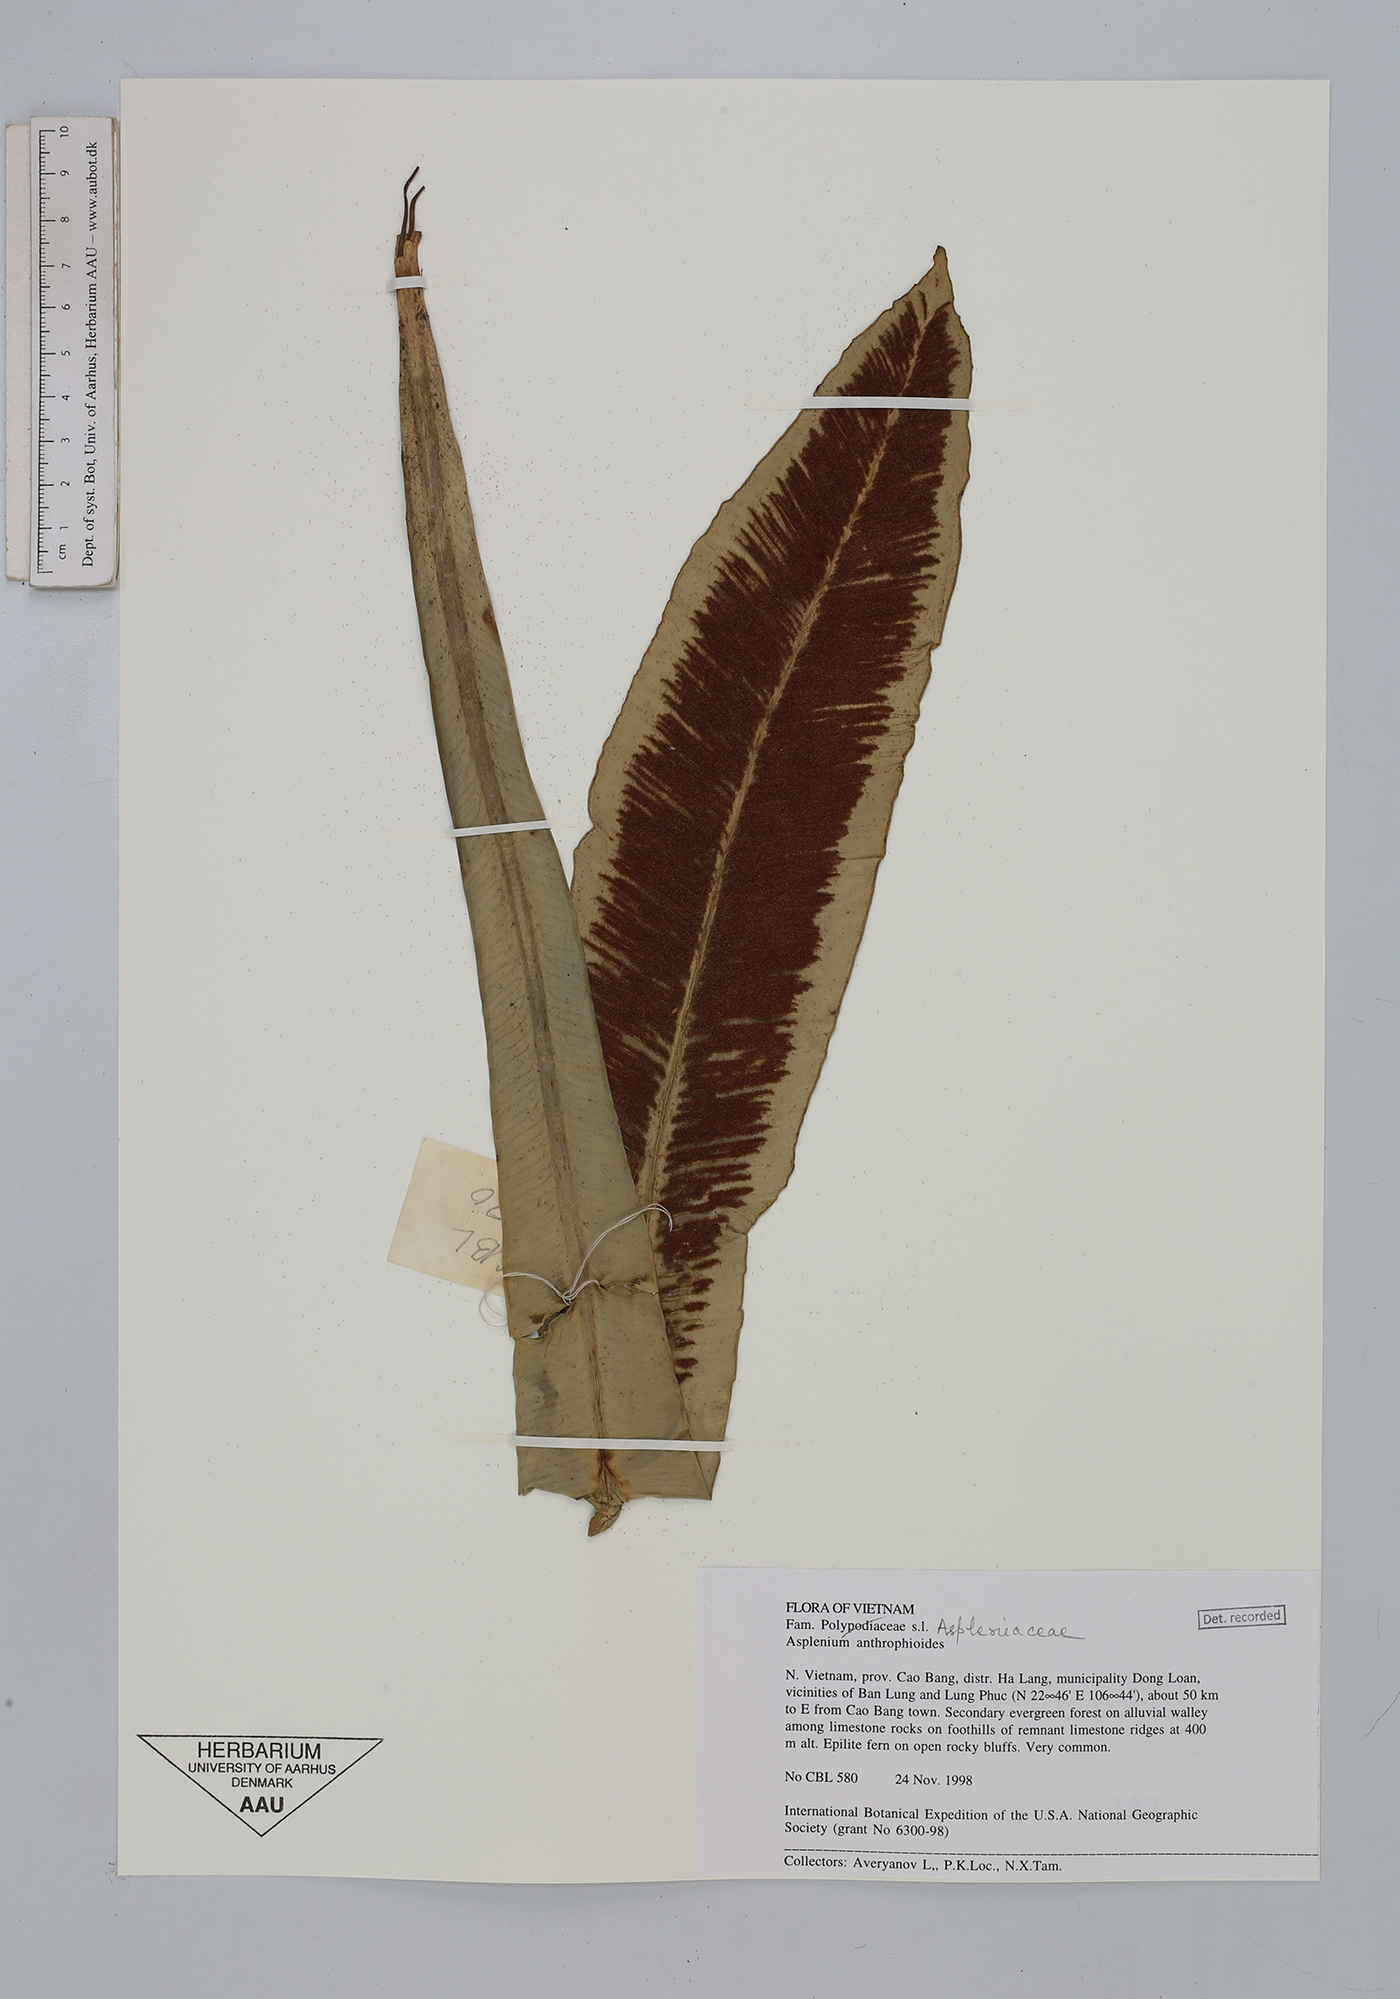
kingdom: Plantae
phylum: Tracheophyta
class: Polypodiopsida
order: Polypodiales
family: Aspleniaceae
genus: Asplenium
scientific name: Asplenium antrophyoides
